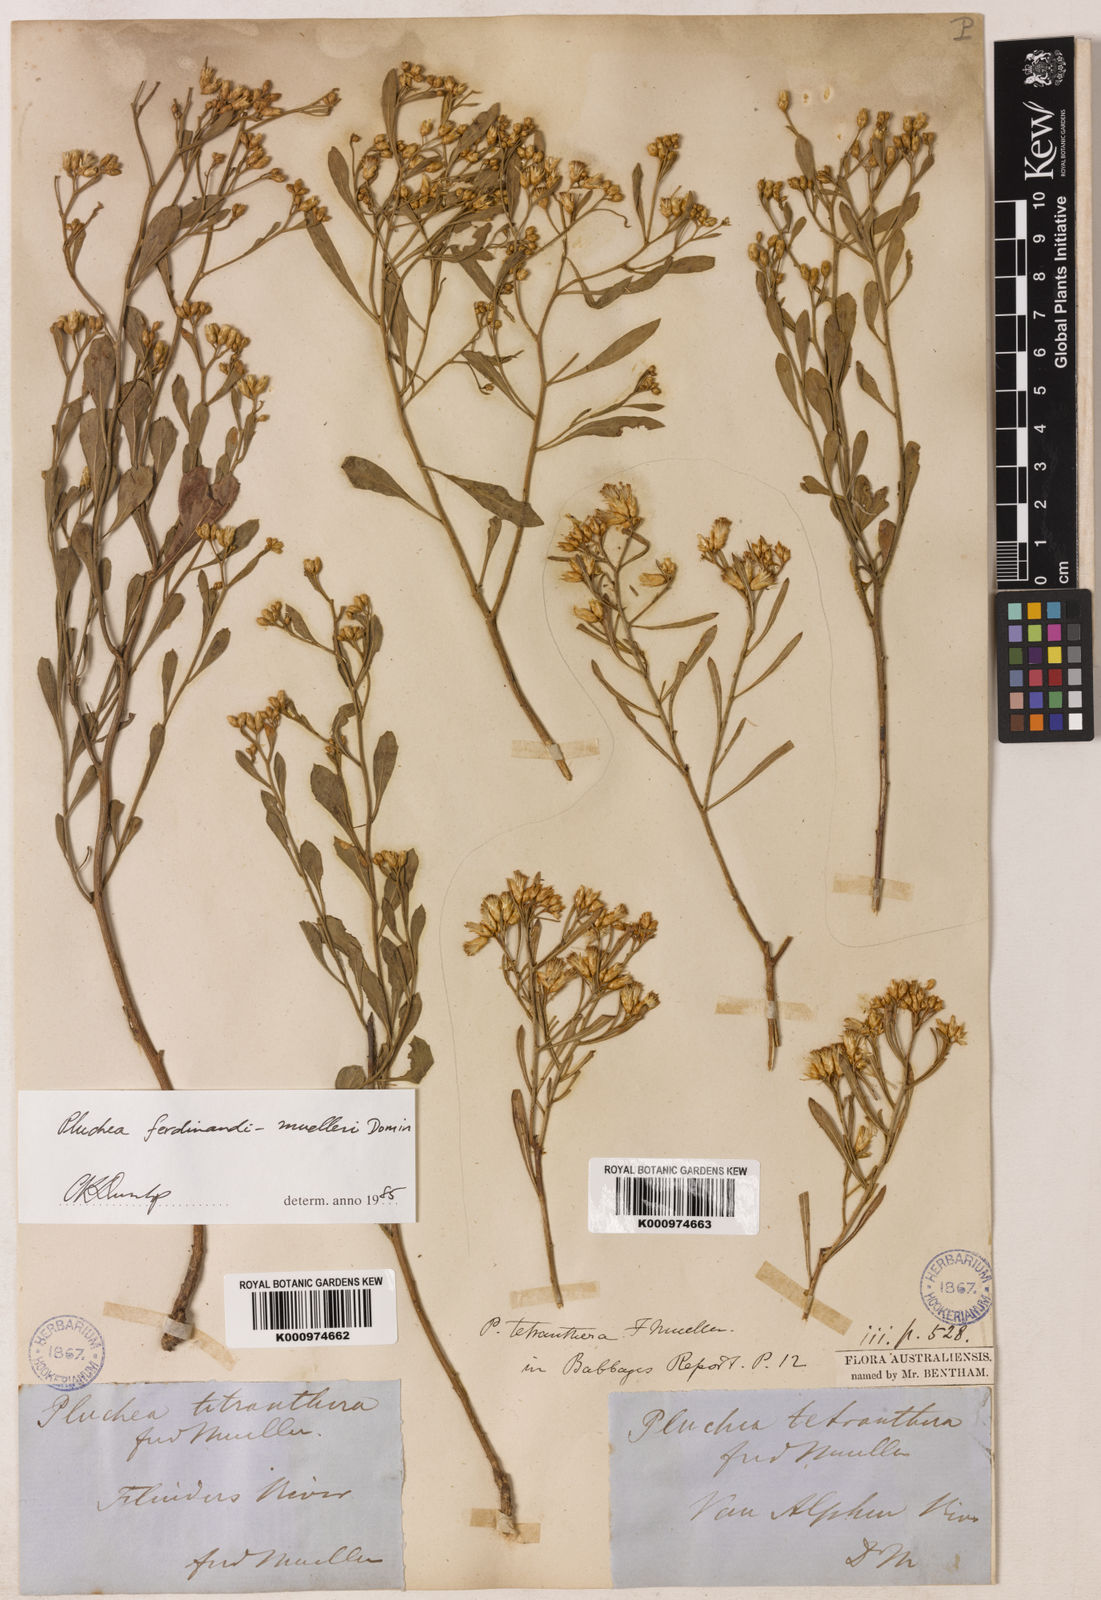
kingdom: Plantae
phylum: Tracheophyta
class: Magnoliopsida
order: Asterales
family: Asteraceae
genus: Pluchea
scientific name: Pluchea tetranthera
